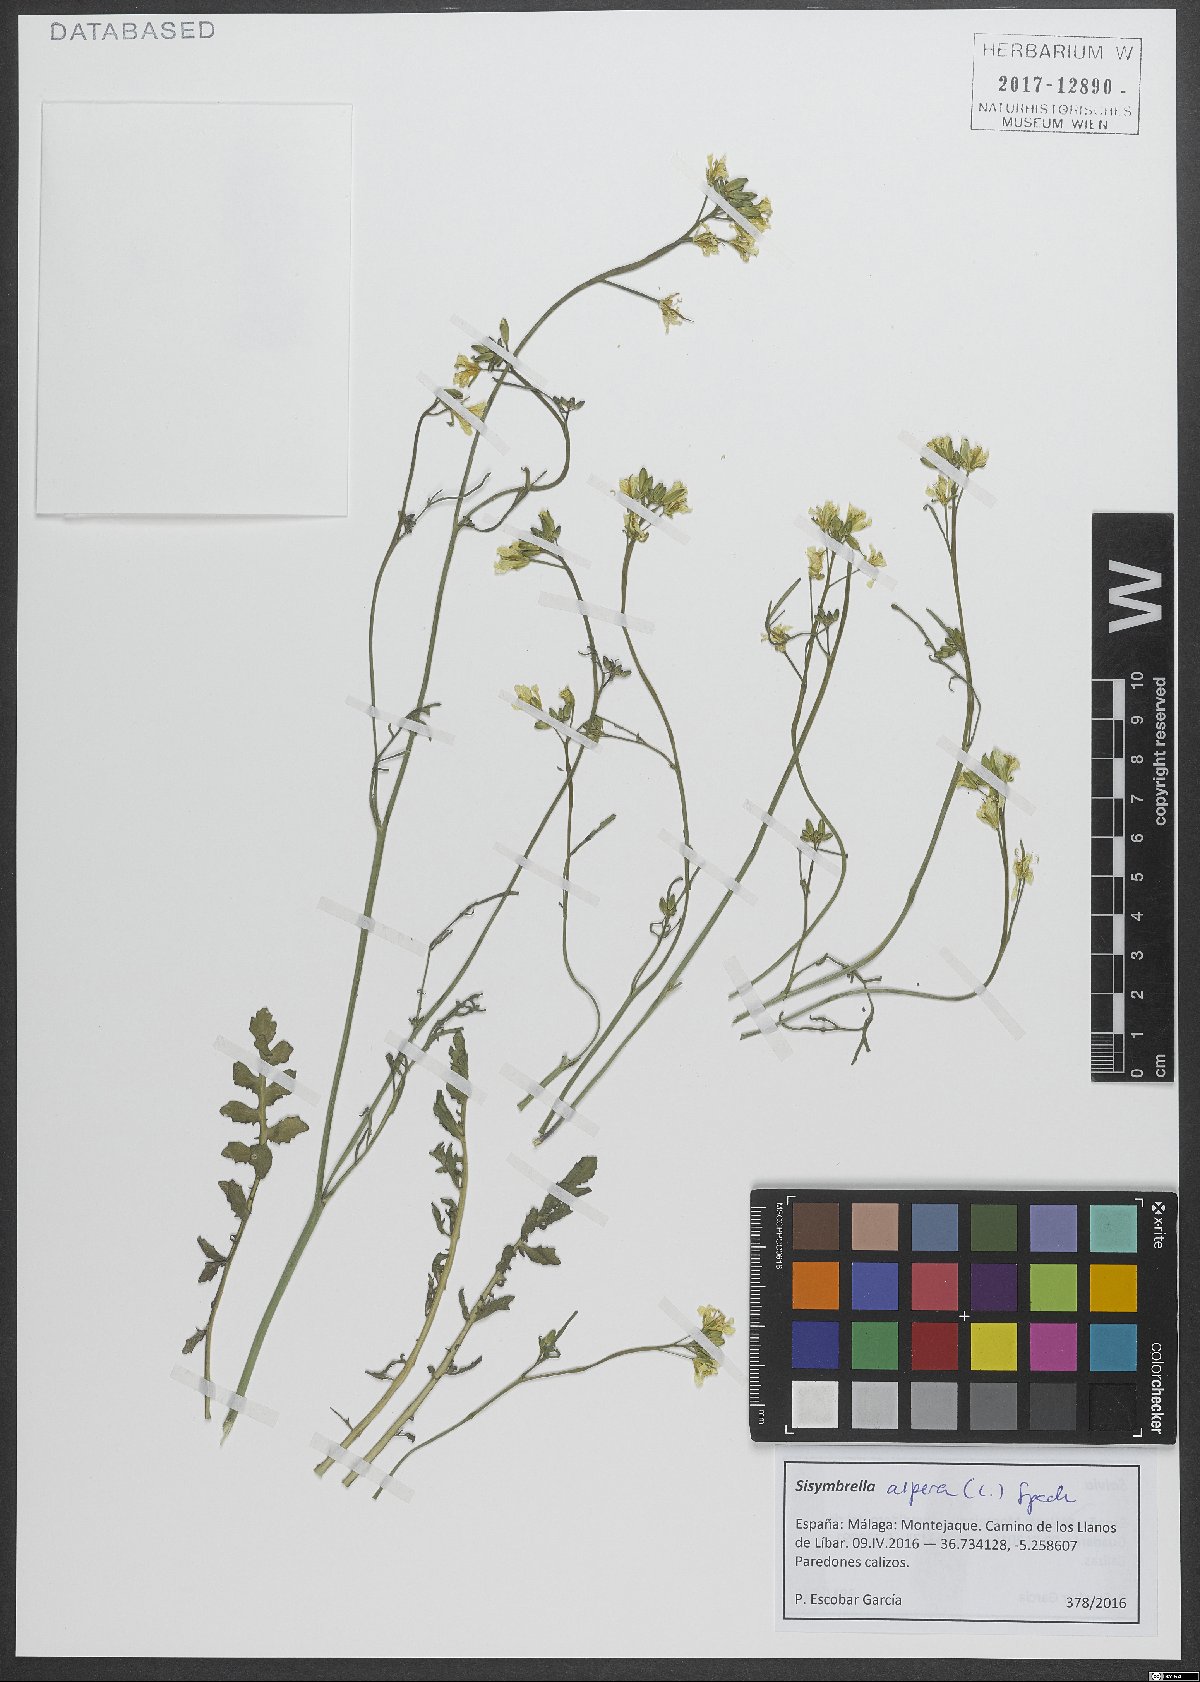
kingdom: Plantae
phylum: Tracheophyta
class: Magnoliopsida
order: Brassicales
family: Brassicaceae
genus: Sisymbrella
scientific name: Sisymbrella aspera
